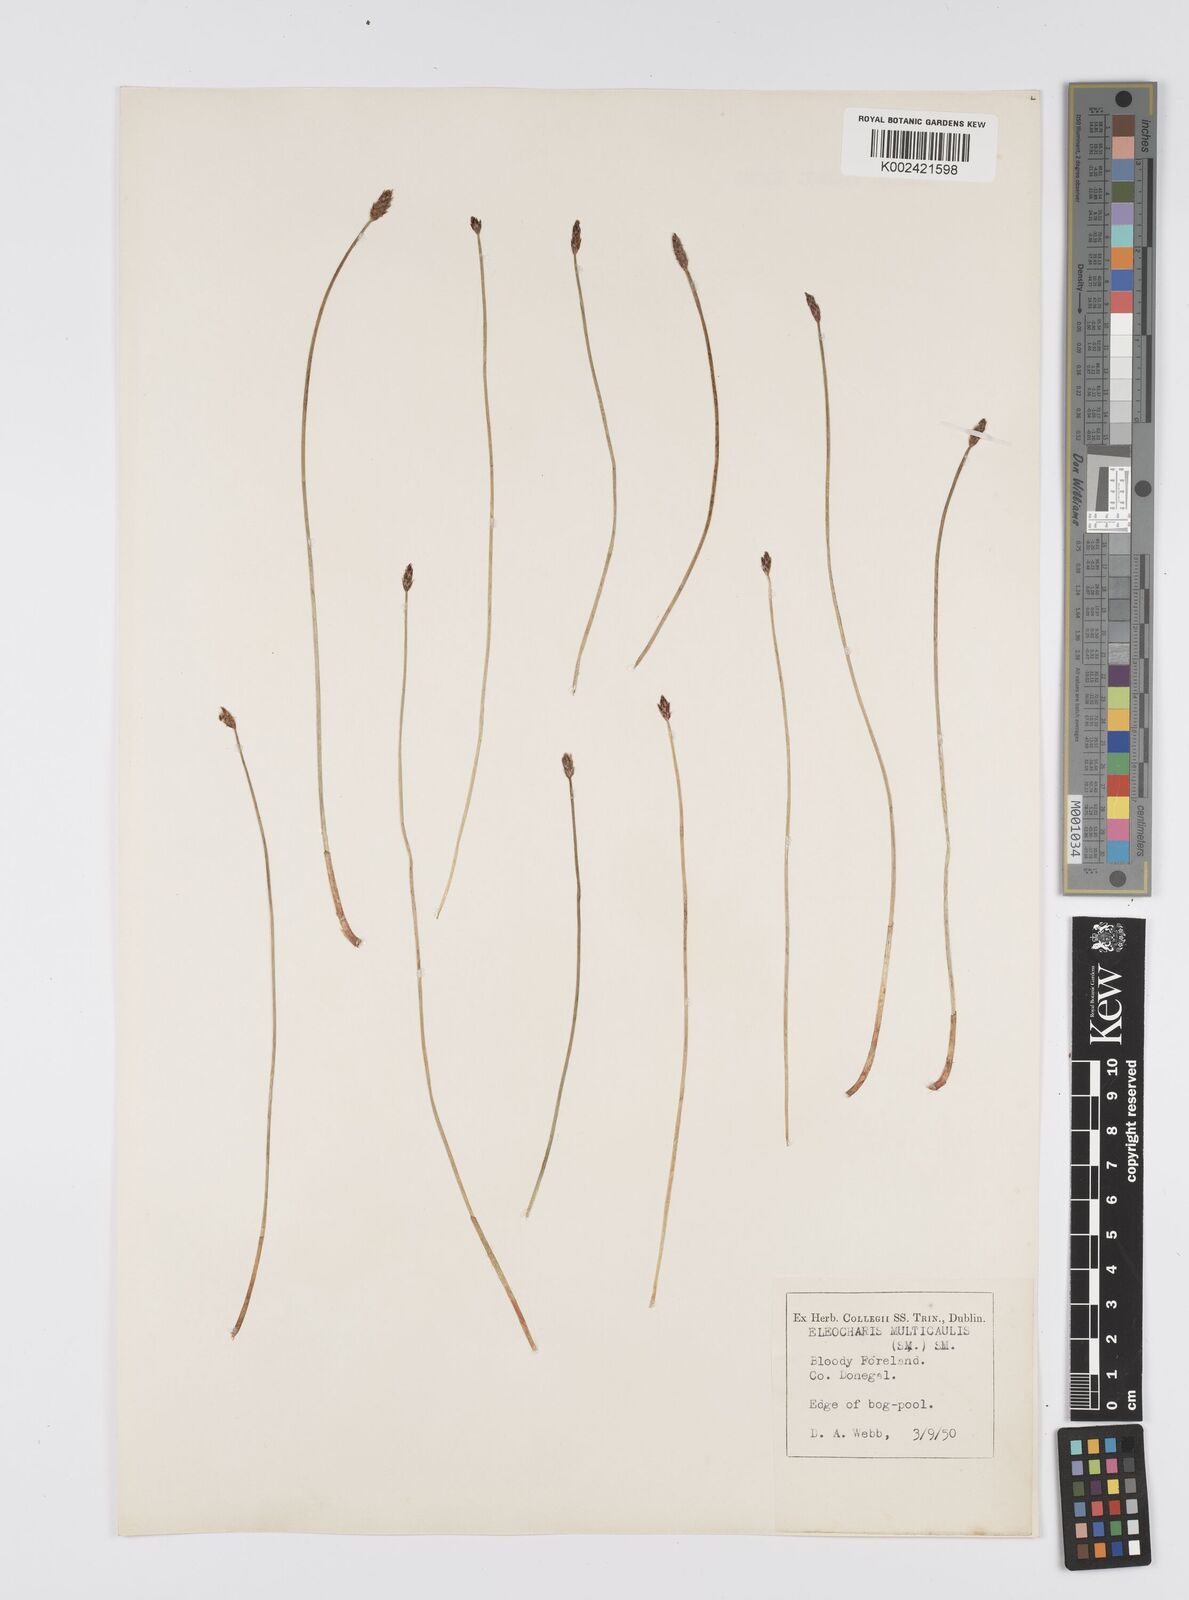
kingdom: Plantae
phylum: Tracheophyta
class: Liliopsida
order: Poales
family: Cyperaceae
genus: Eleocharis
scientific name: Eleocharis multicaulis
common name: Many-stalked spike-rush
